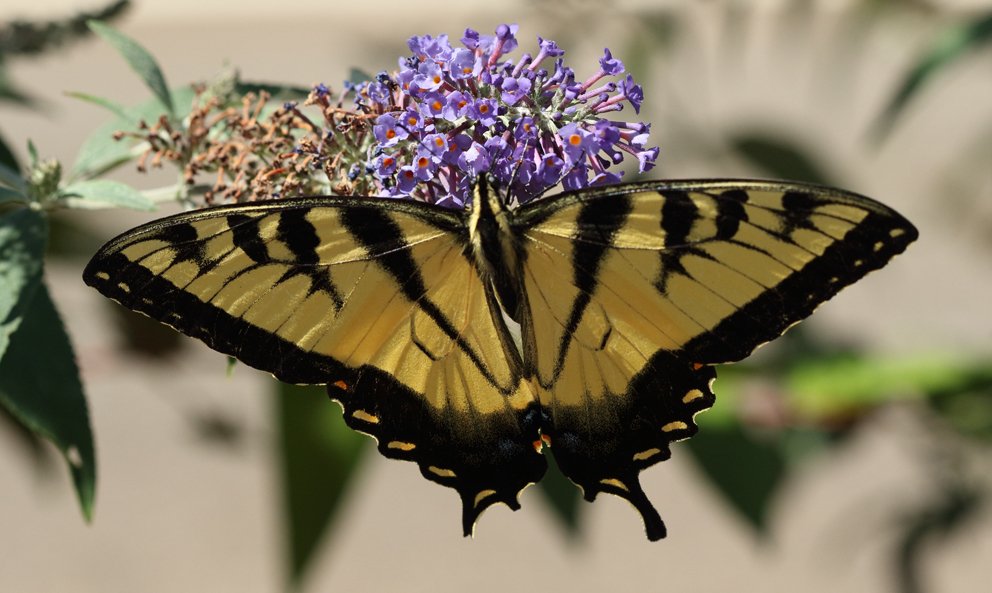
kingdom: Animalia
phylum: Arthropoda
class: Insecta
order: Lepidoptera
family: Papilionidae
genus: Pterourus
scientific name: Pterourus glaucus
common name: Eastern Tiger Swallowtail
